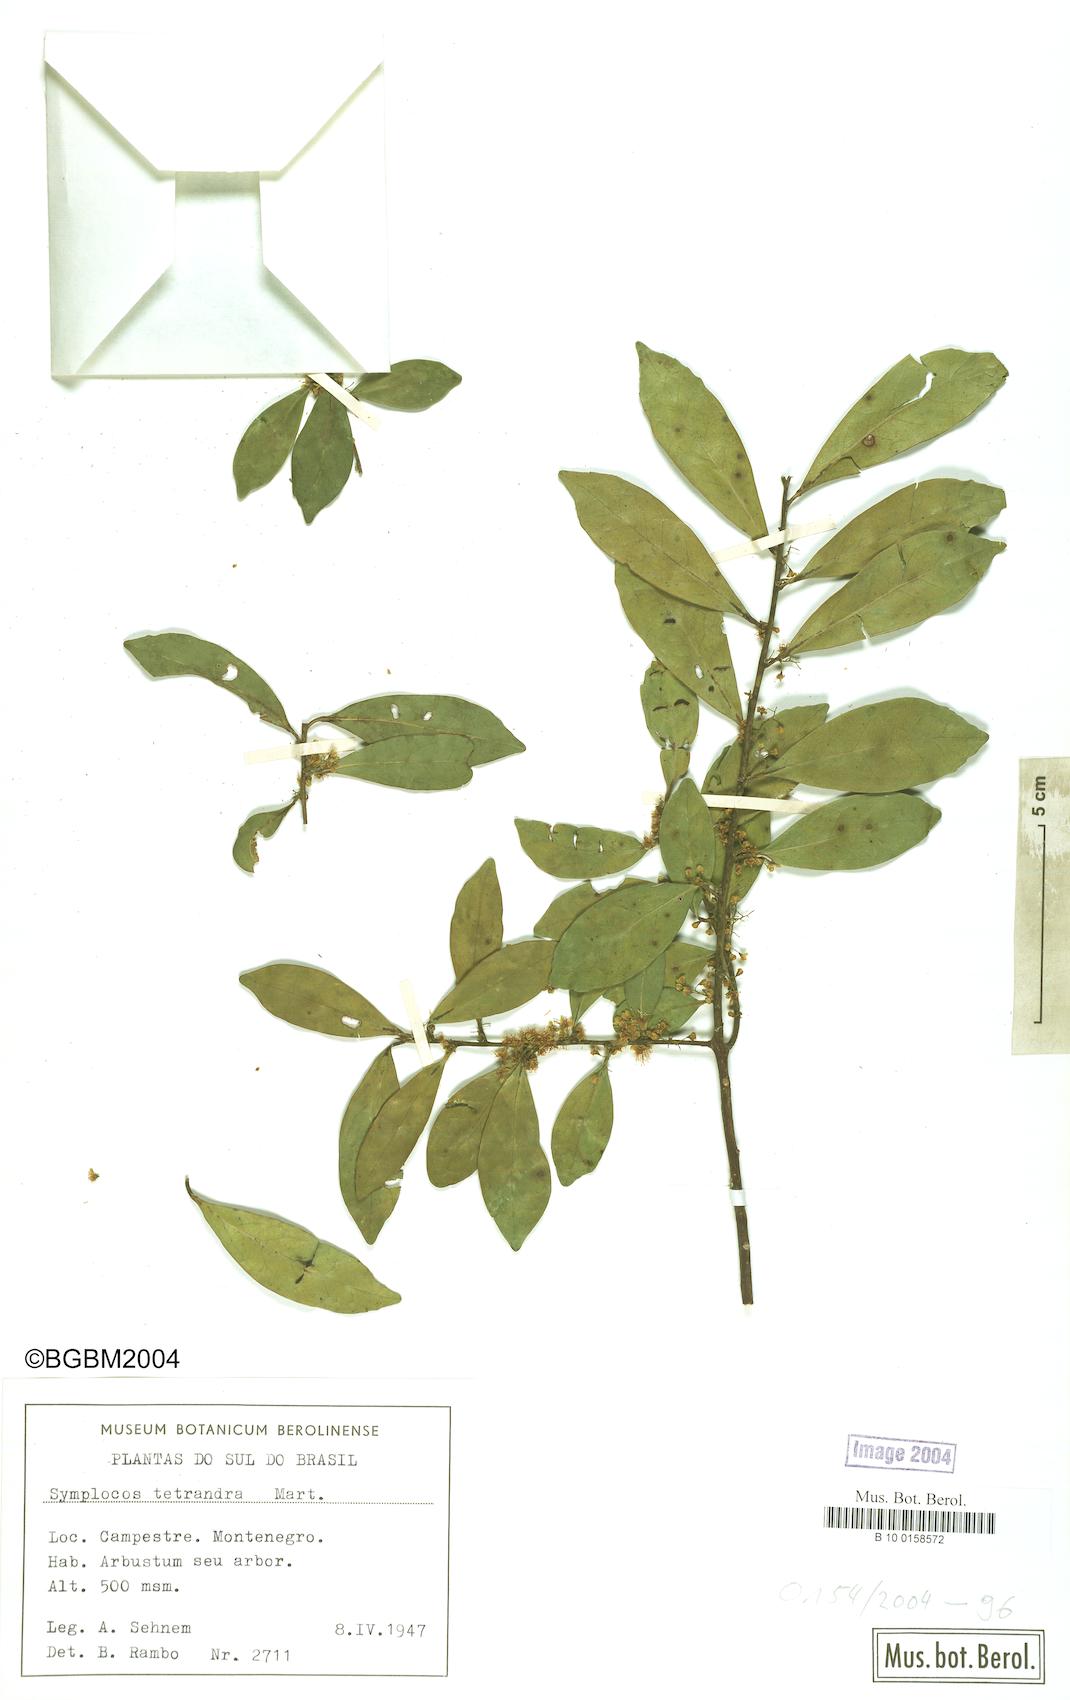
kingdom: Plantae
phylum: Tracheophyta
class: Magnoliopsida
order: Ericales
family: Symplocaceae
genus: Symplocos
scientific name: Symplocos tetrandra
